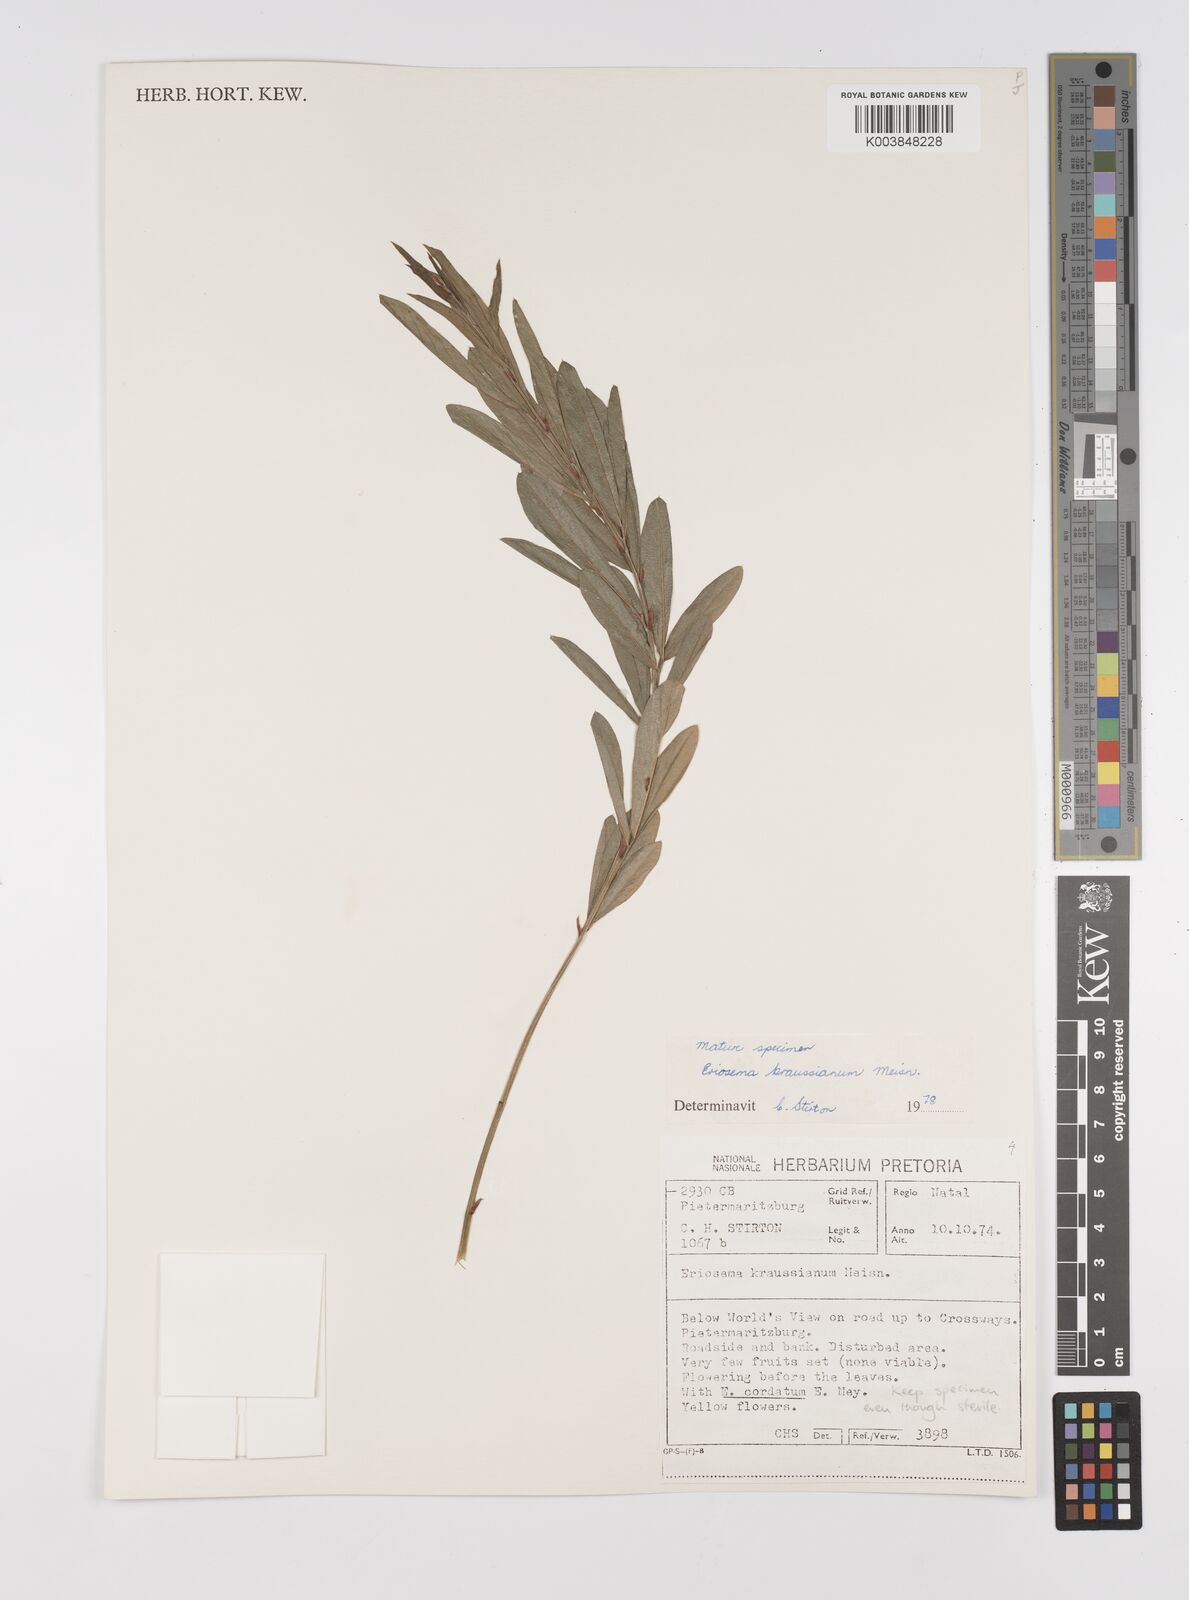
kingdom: Plantae
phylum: Tracheophyta
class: Magnoliopsida
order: Fabales
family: Fabaceae
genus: Eriosema
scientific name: Eriosema kraussianum
